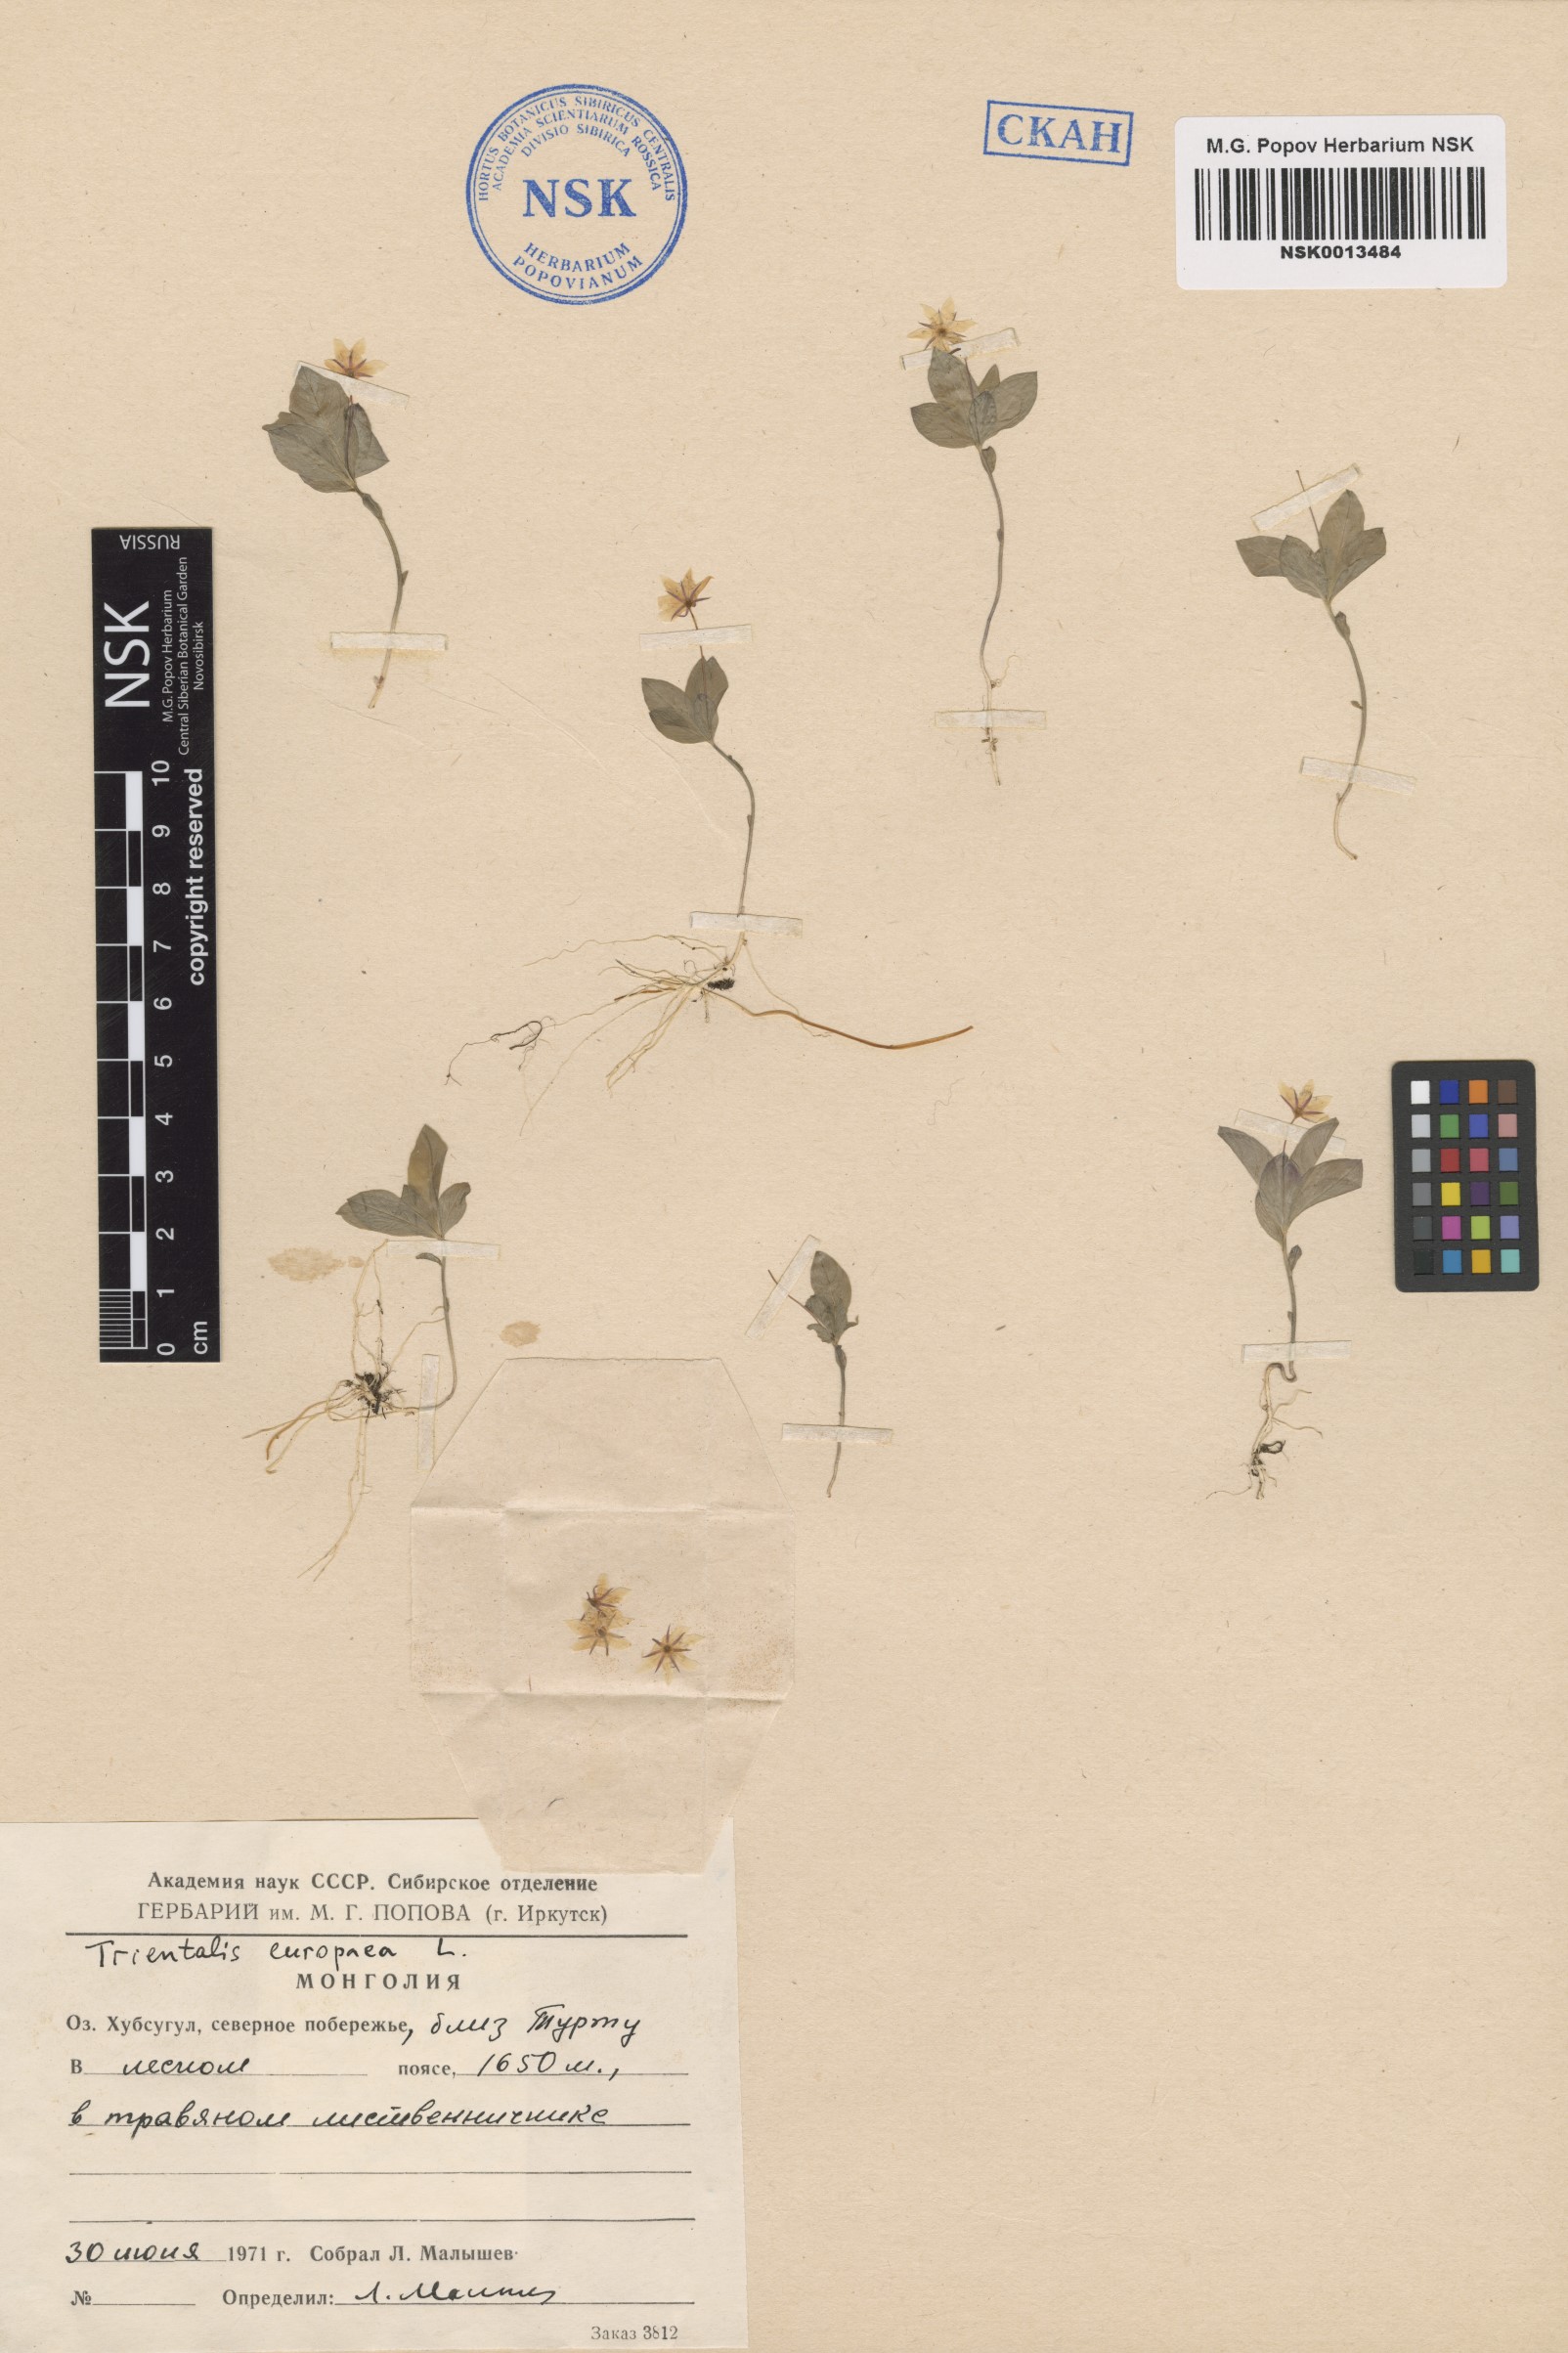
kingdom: Plantae
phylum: Tracheophyta
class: Magnoliopsida
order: Ericales
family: Primulaceae
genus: Lysimachia
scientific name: Lysimachia europaea
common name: Arctic starflower
